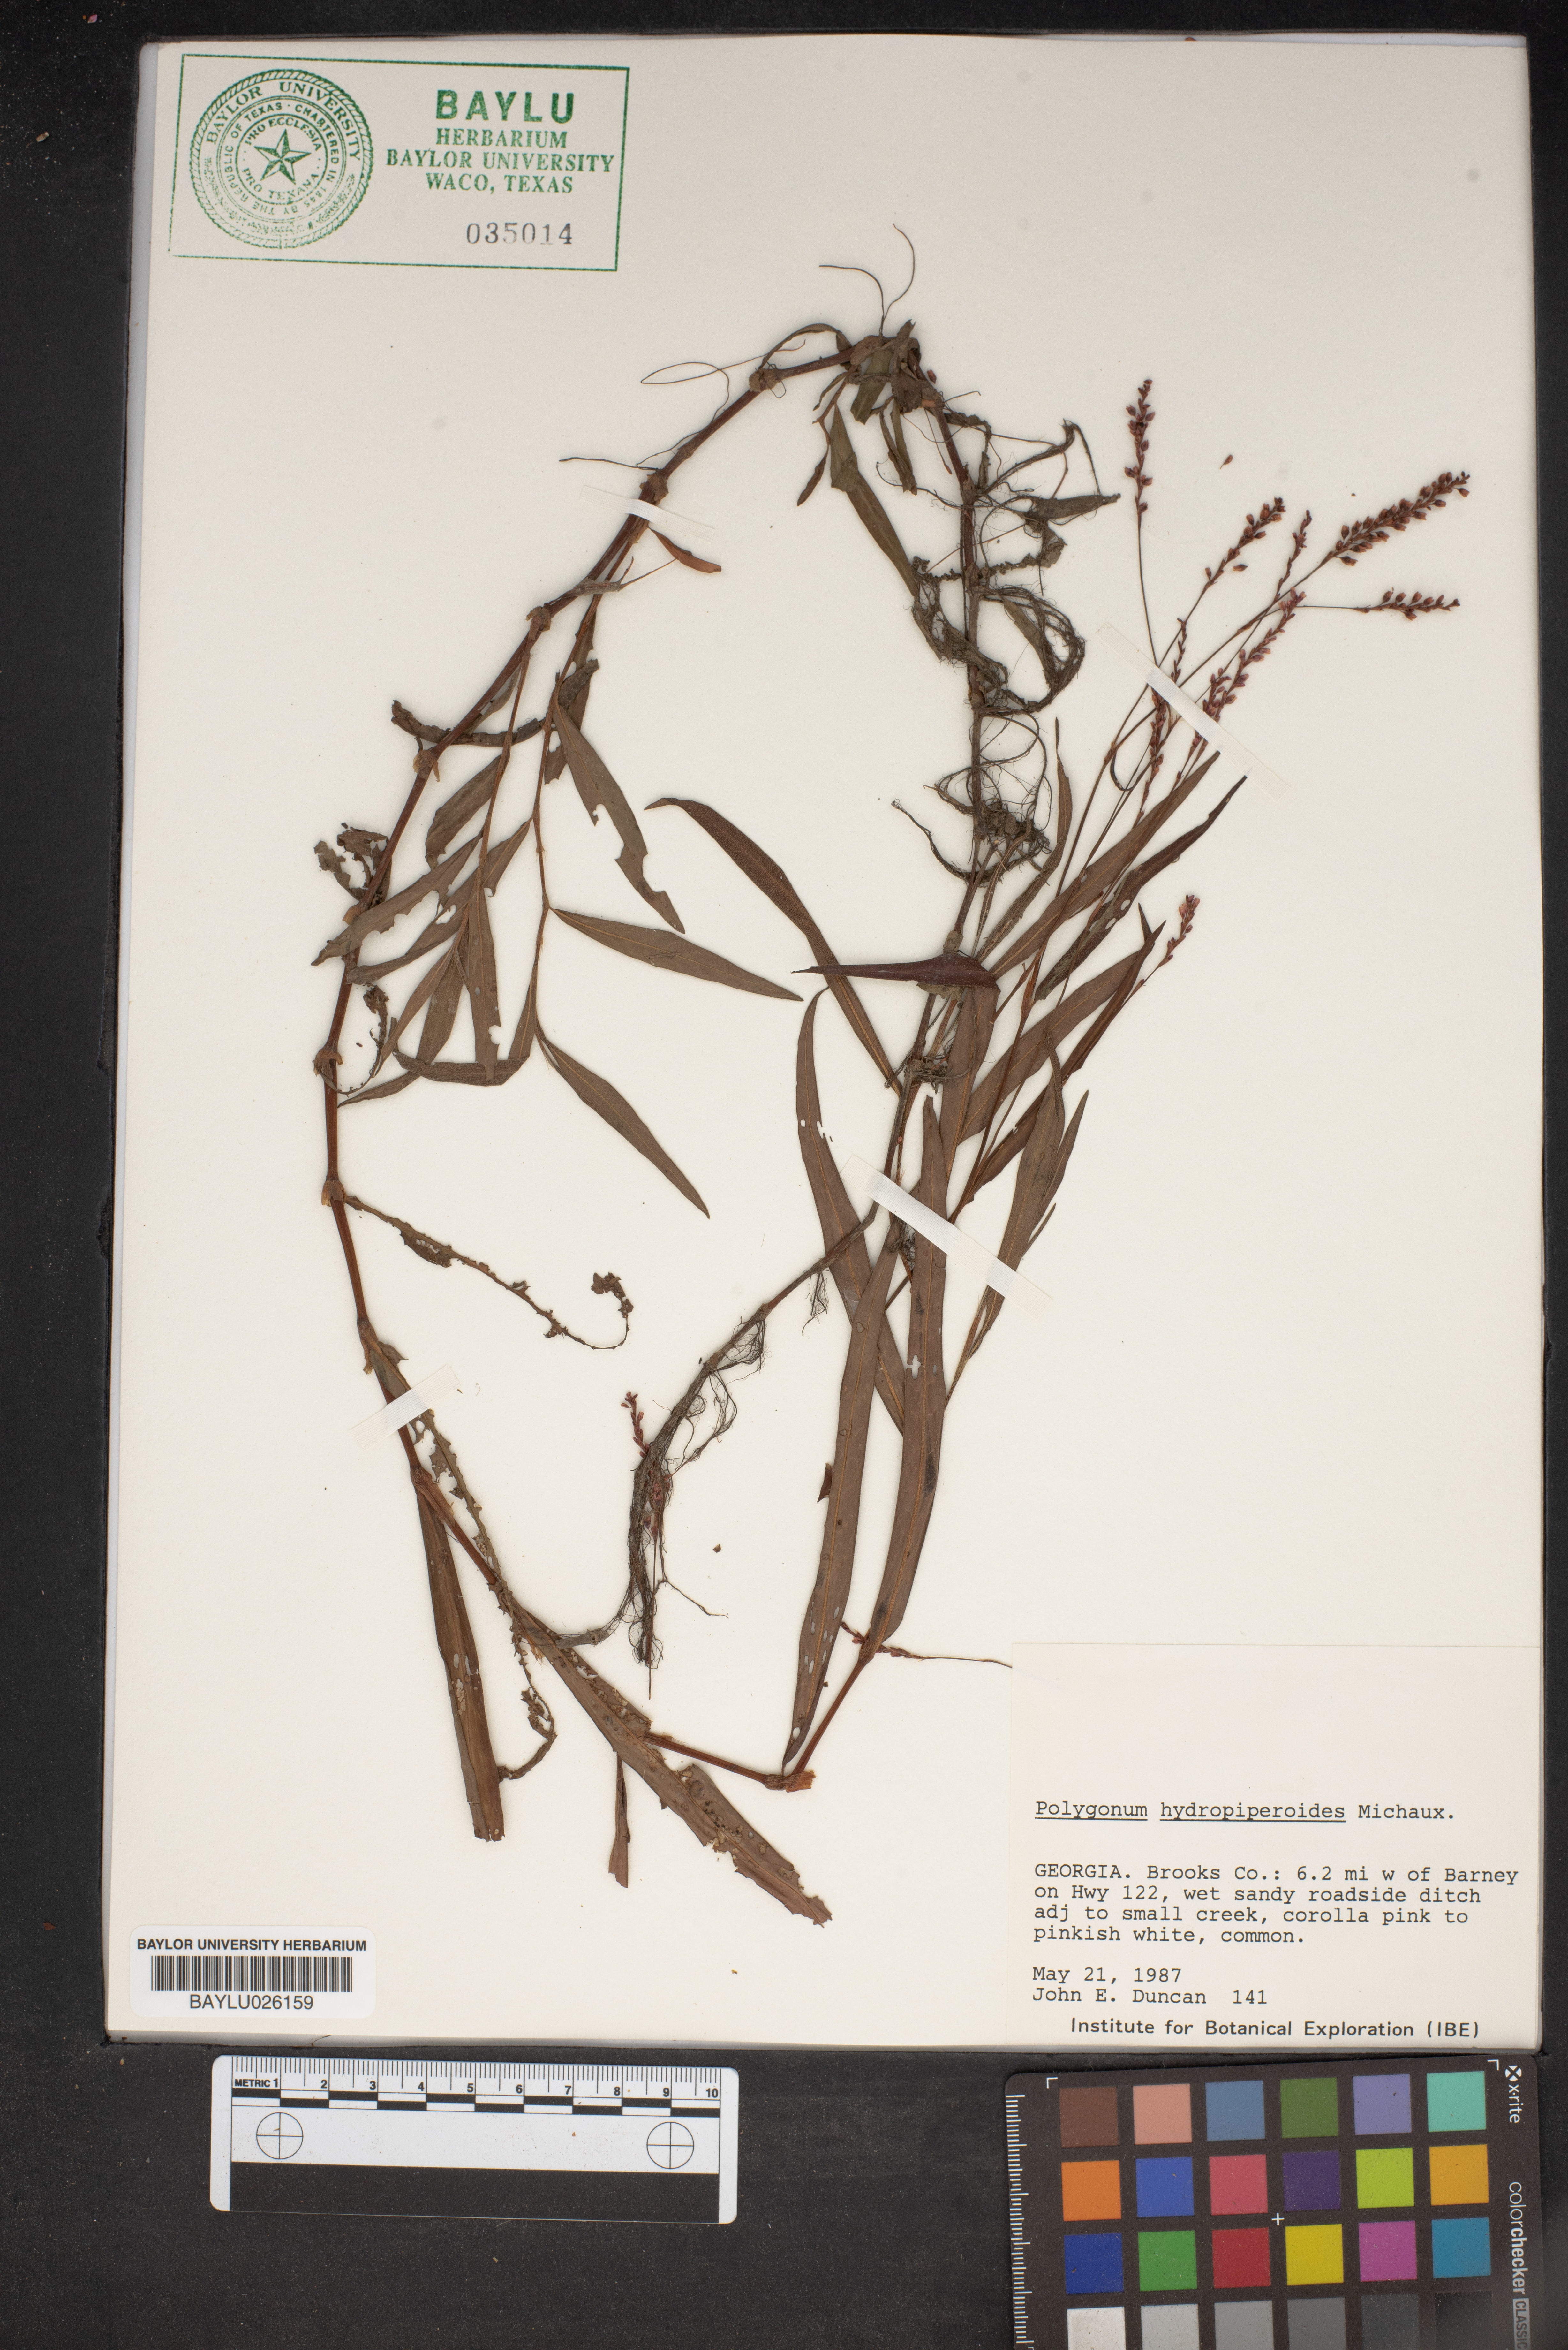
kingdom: Plantae
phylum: Tracheophyta
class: Magnoliopsida
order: Caryophyllales
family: Polygonaceae
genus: Persicaria
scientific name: Persicaria hydropiperoides
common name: Swamp smartweed
